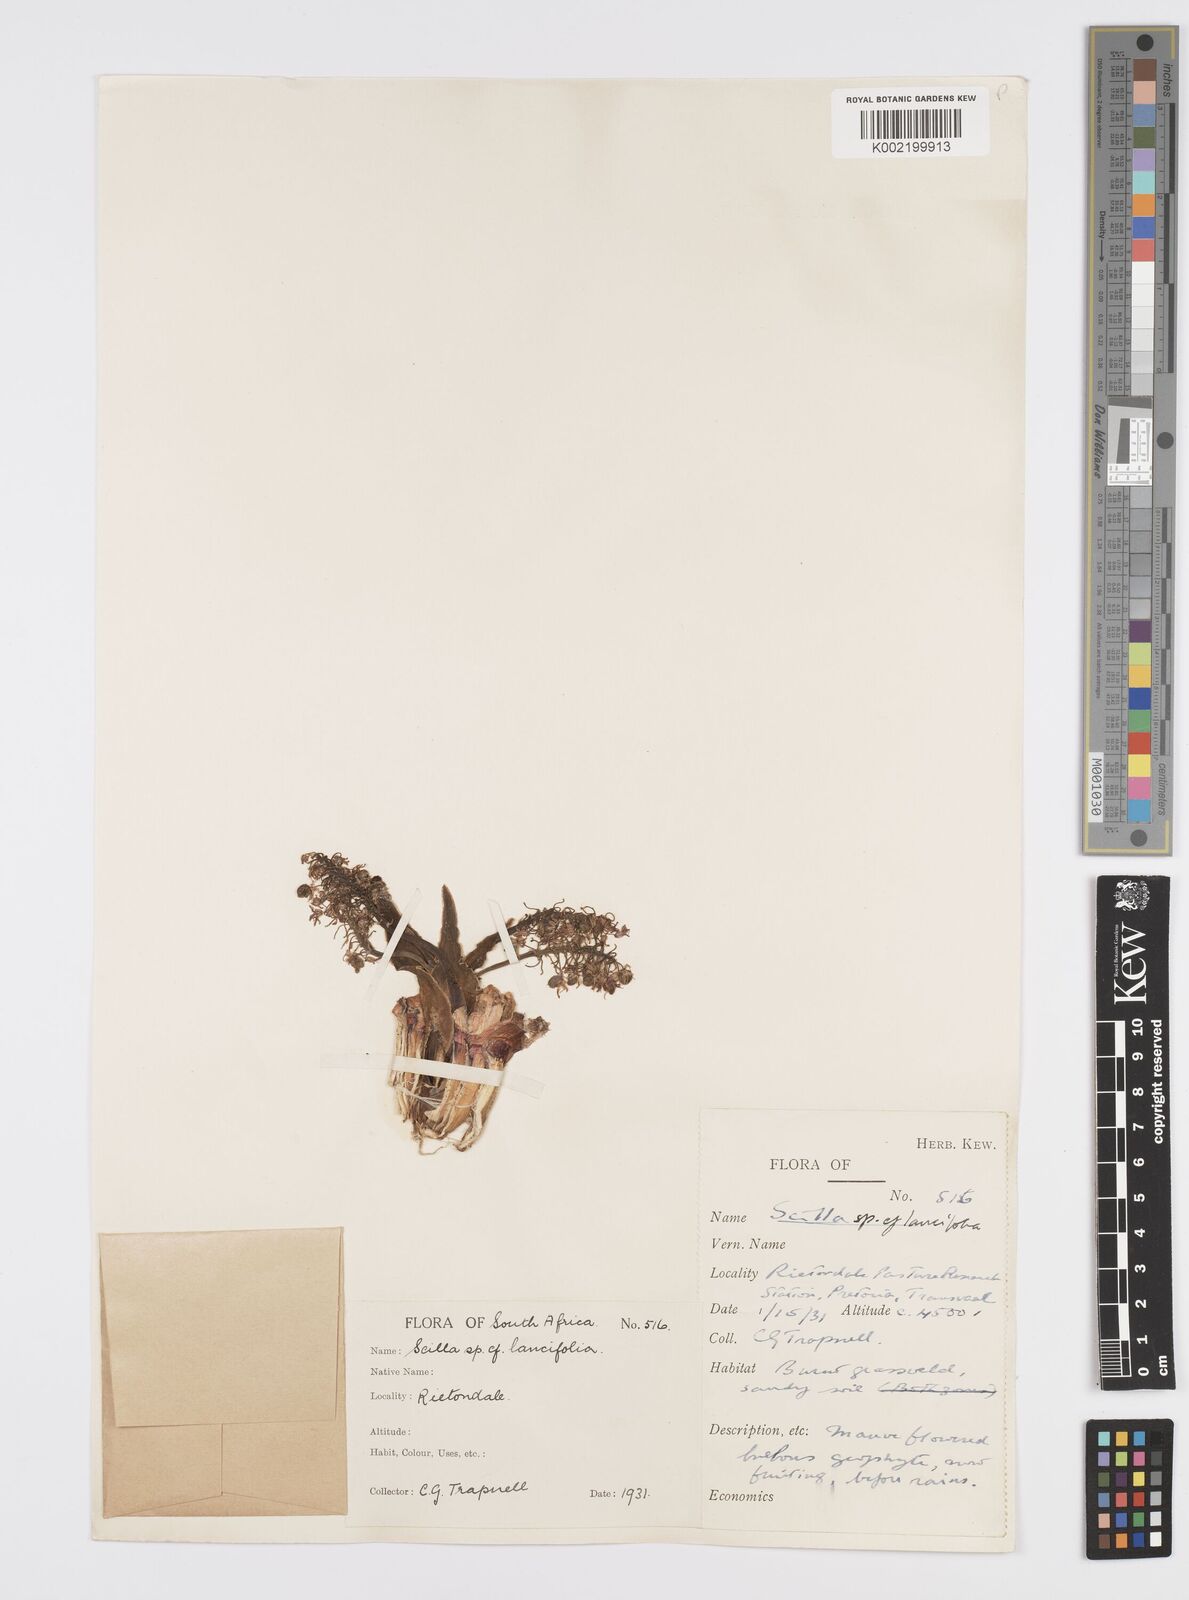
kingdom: Plantae
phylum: Tracheophyta
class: Liliopsida
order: Asparagales
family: Asparagaceae
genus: Ledebouria
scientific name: Ledebouria revoluta
